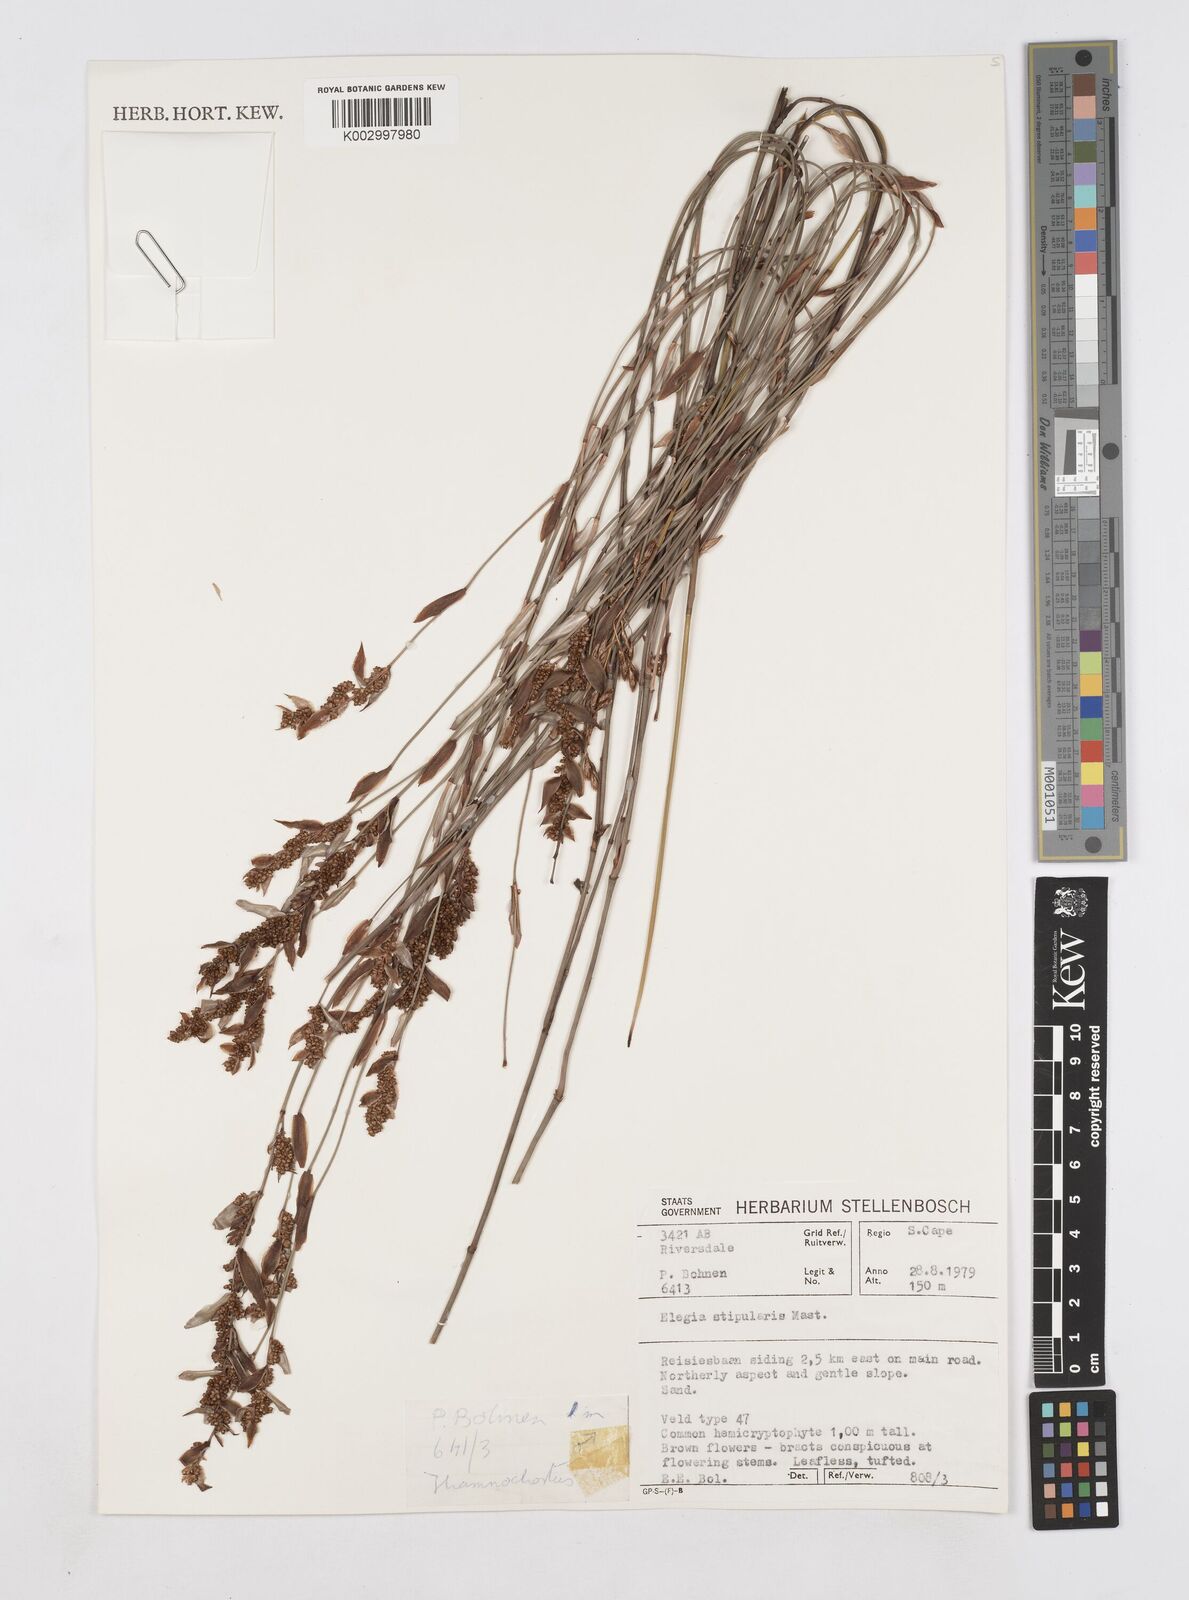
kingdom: Plantae
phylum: Tracheophyta
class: Liliopsida
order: Poales
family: Restionaceae
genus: Elegia
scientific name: Elegia stipularis
